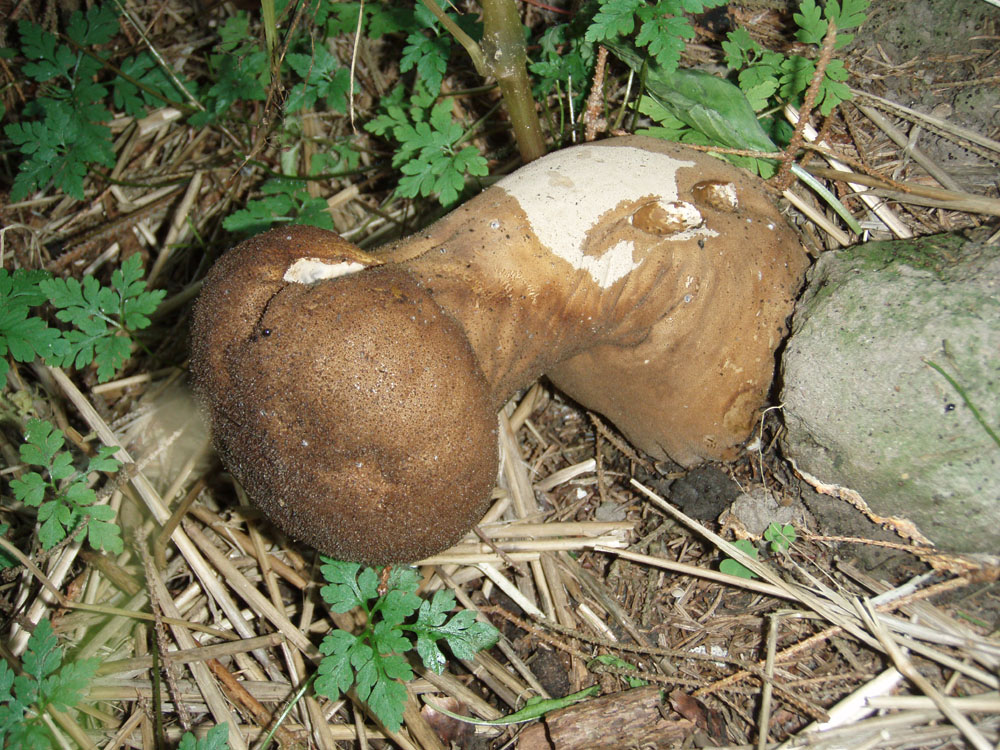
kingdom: Fungi
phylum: Basidiomycota
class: Agaricomycetes
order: Agaricales
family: Lycoperdaceae
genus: Lycoperdon
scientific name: Lycoperdon excipuliforme
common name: højstokket støvbold
